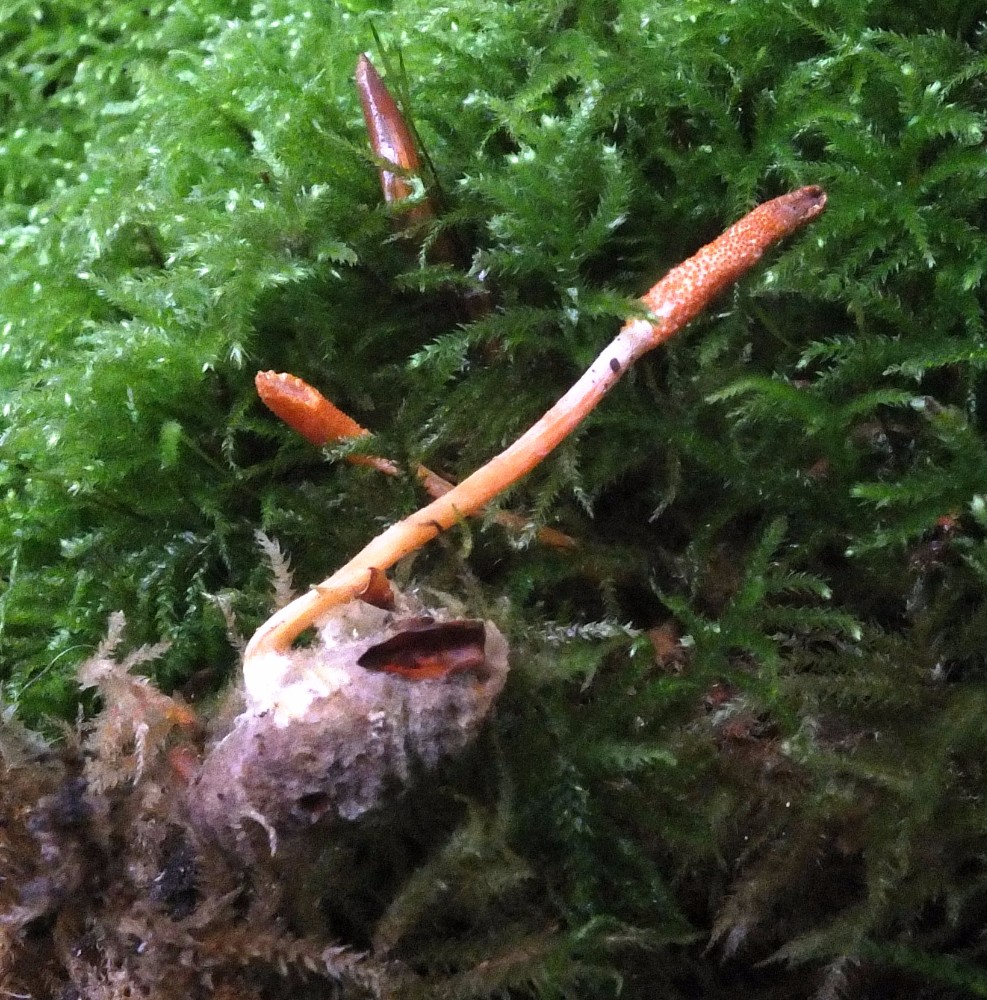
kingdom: Fungi
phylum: Ascomycota
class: Sordariomycetes
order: Hypocreales
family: Cordycipitaceae
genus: Cordyceps
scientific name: Cordyceps militaris
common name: puppe-snyltekølle
